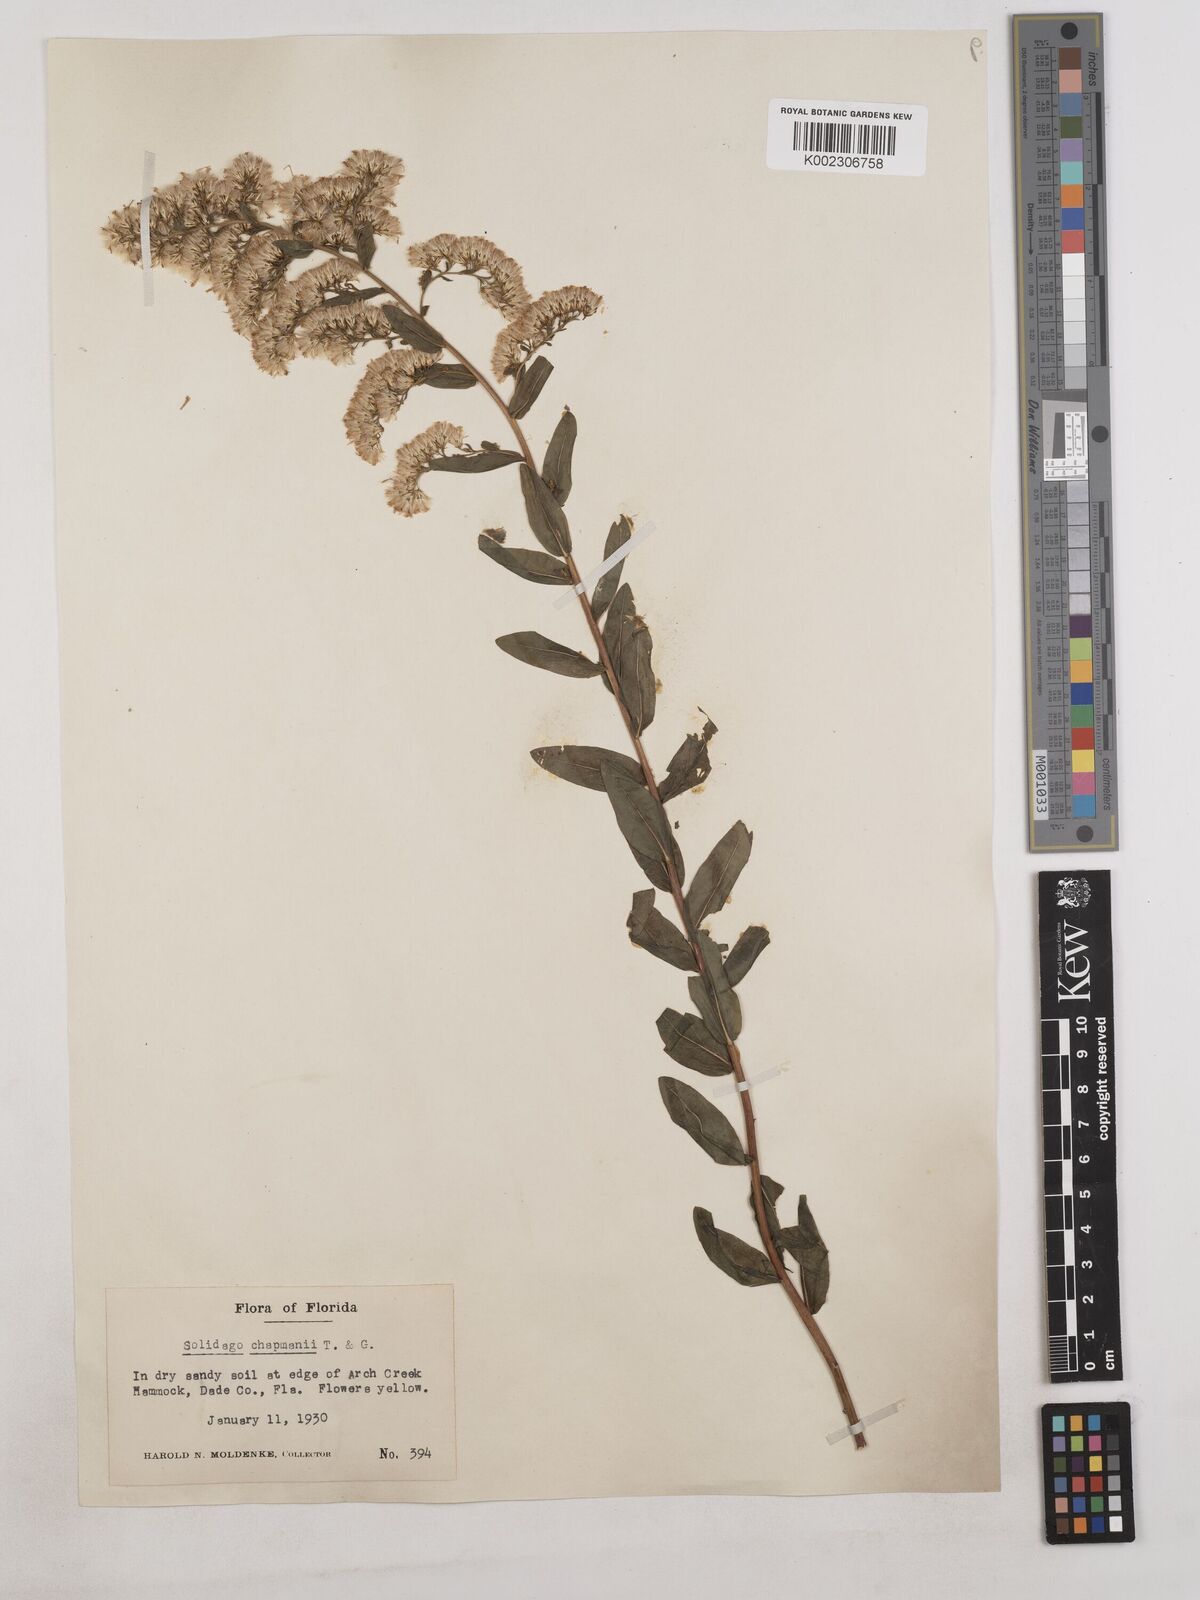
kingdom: Plantae
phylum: Tracheophyta
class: Magnoliopsida
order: Asterales
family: Asteraceae
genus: Solidago
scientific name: Solidago chapmanii
